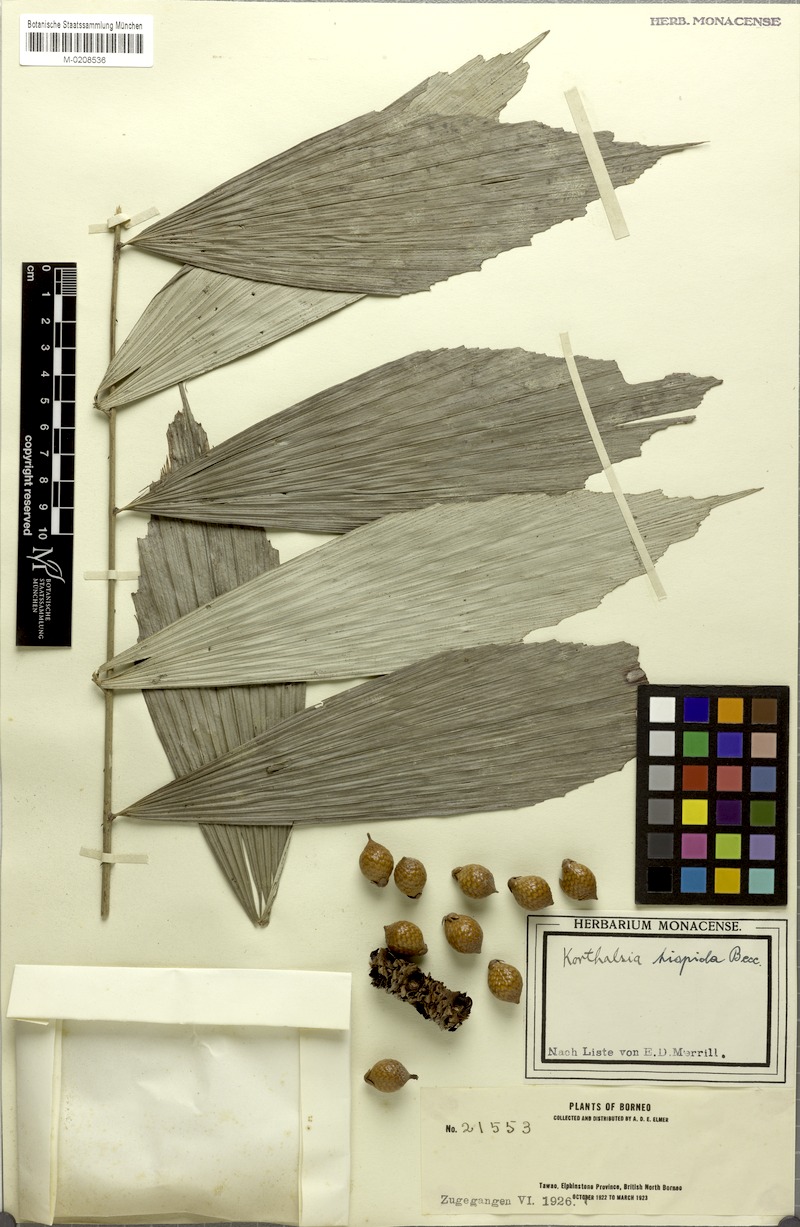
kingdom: Plantae
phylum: Tracheophyta
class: Liliopsida
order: Arecales
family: Arecaceae
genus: Korthalsia
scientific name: Korthalsia hispida
